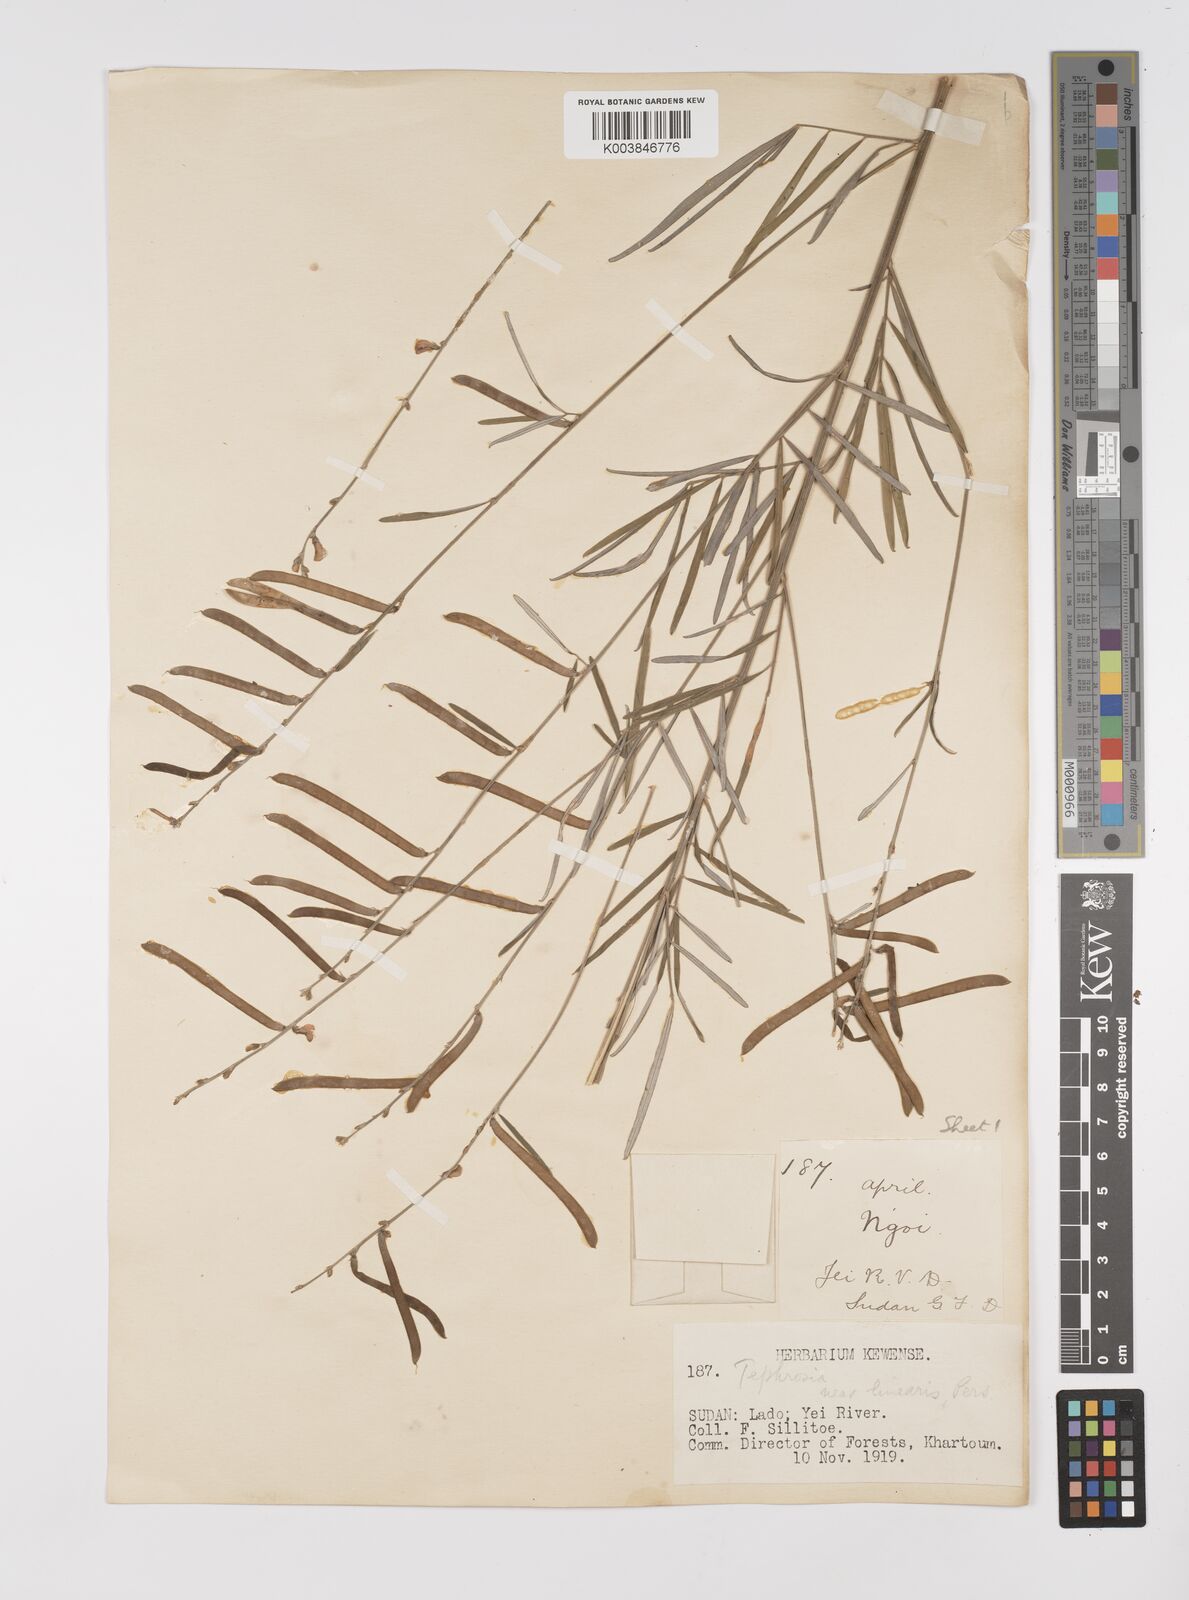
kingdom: Plantae
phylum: Tracheophyta
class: Magnoliopsida
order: Fabales
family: Fabaceae
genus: Tephrosia
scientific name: Tephrosia linearis
